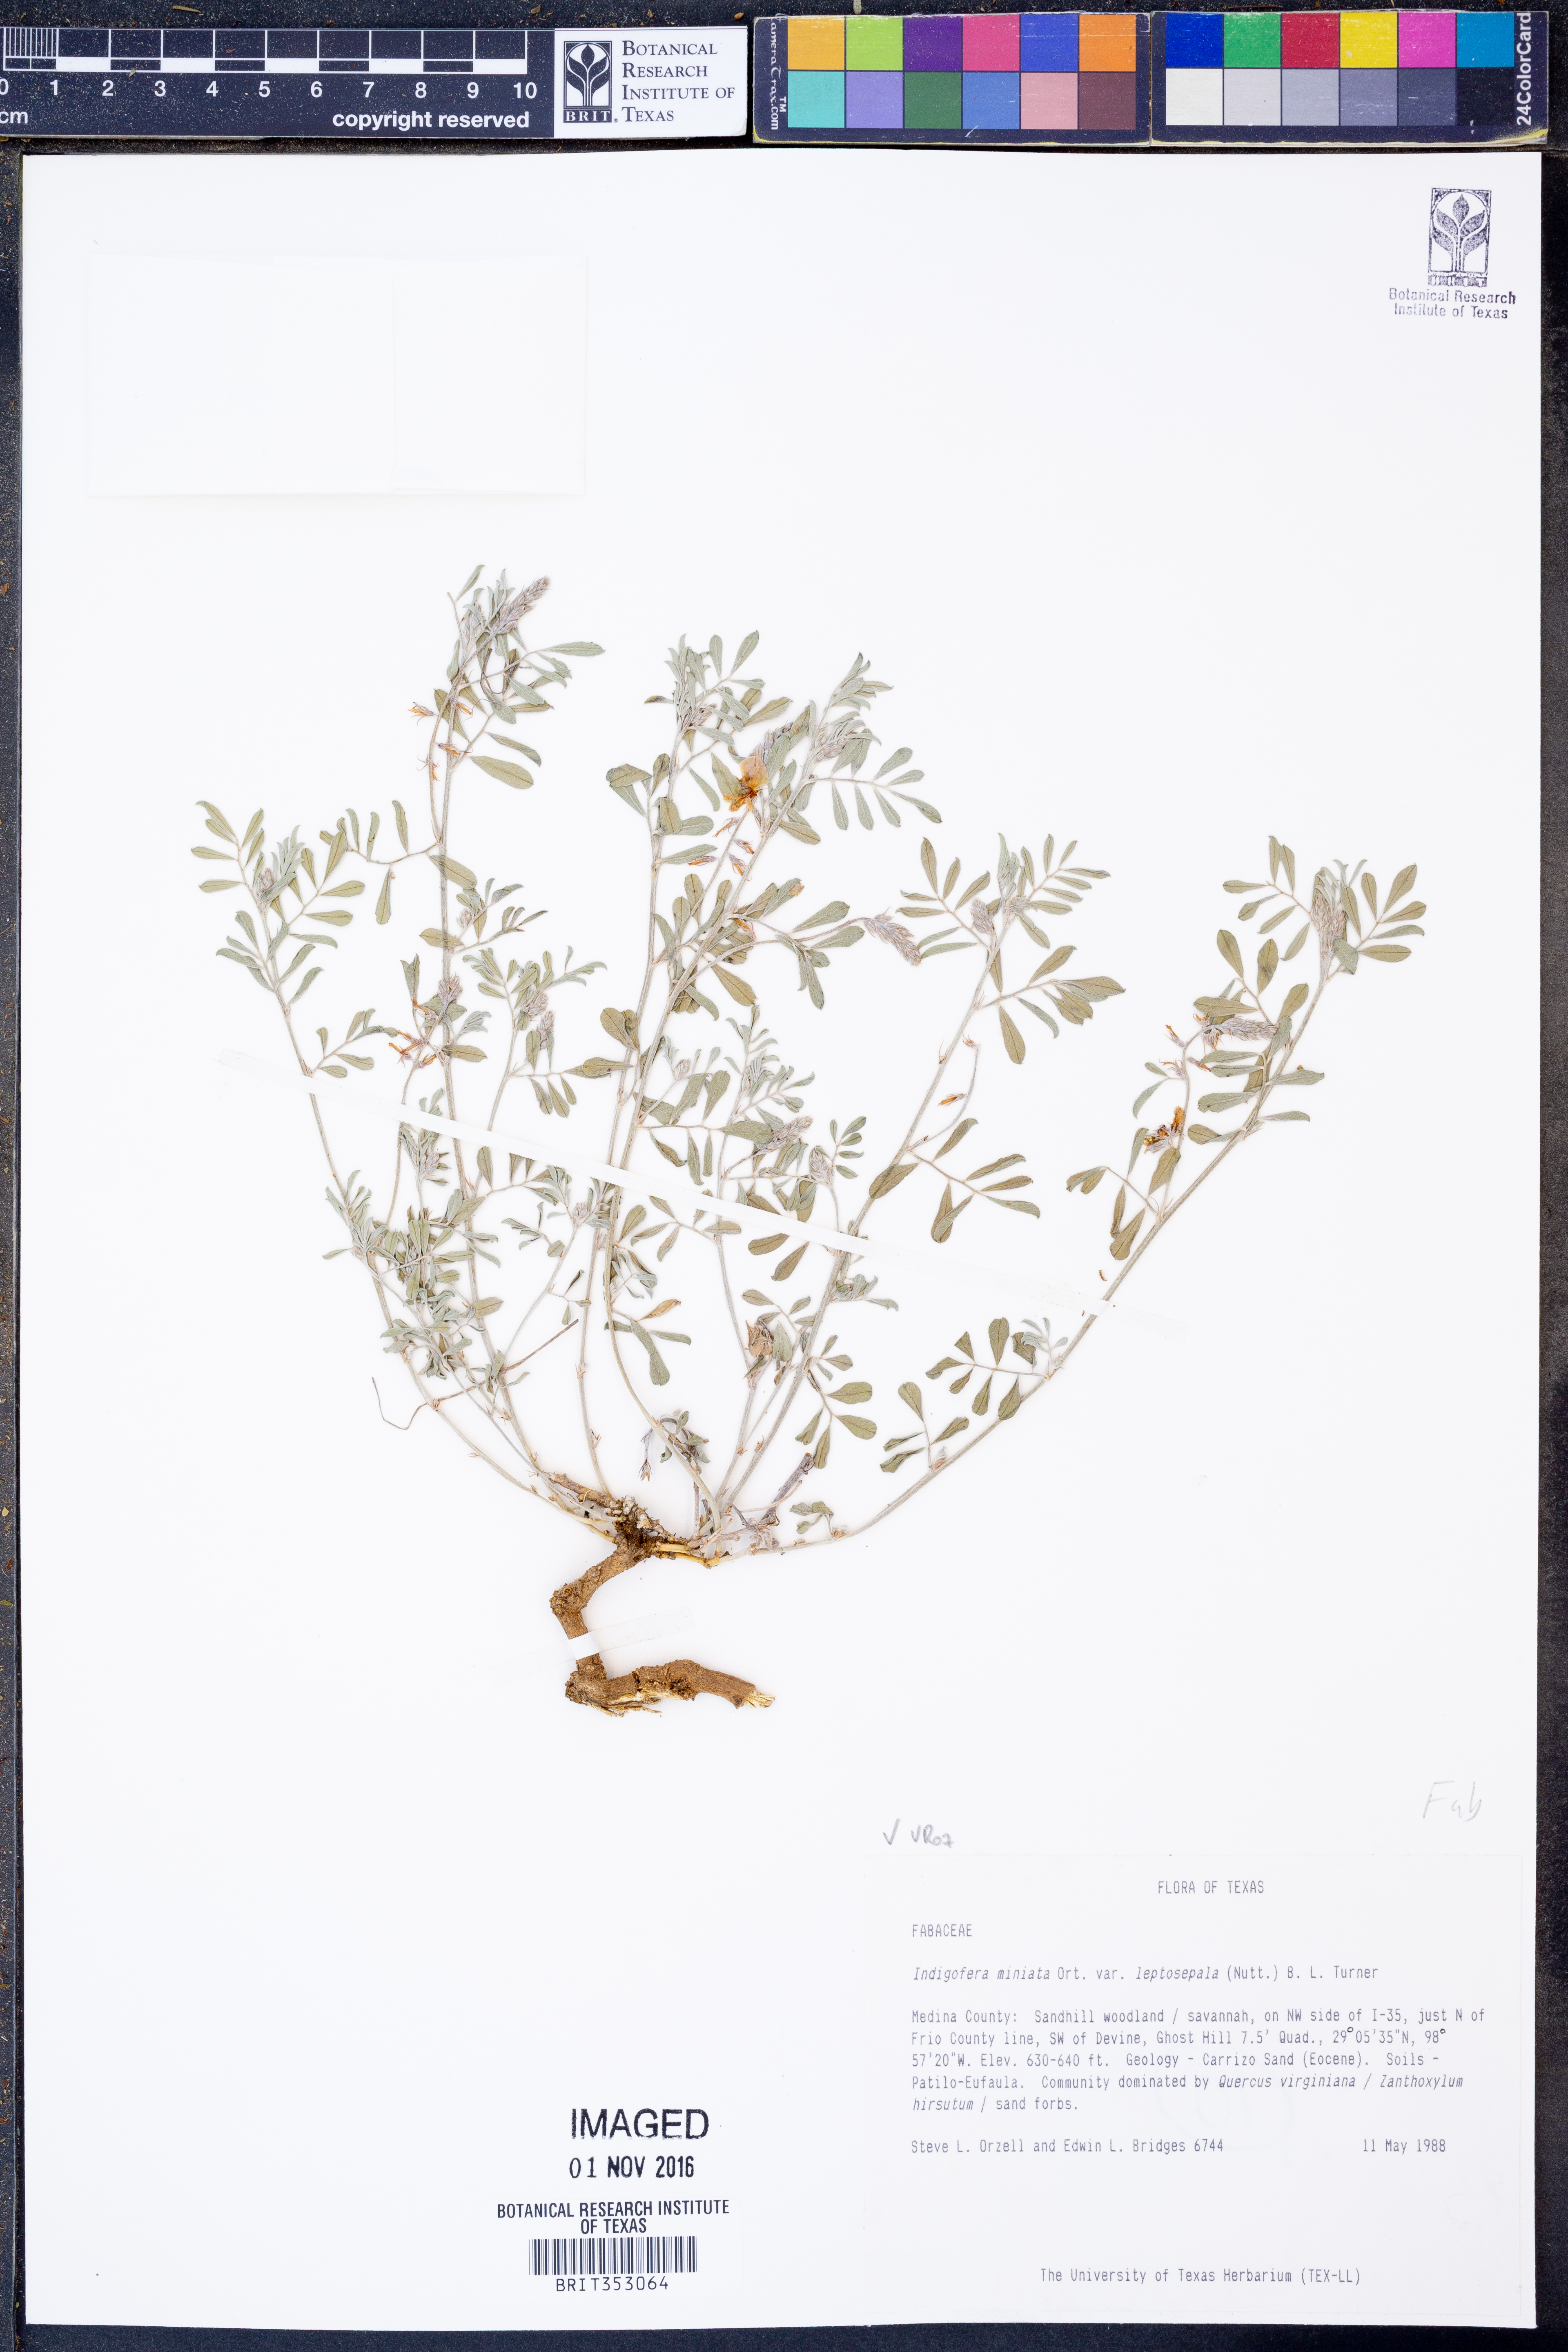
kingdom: Plantae
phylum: Tracheophyta
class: Magnoliopsida
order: Fabales
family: Fabaceae
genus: Indigofera
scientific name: Indigofera miniata
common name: Coast indigo
